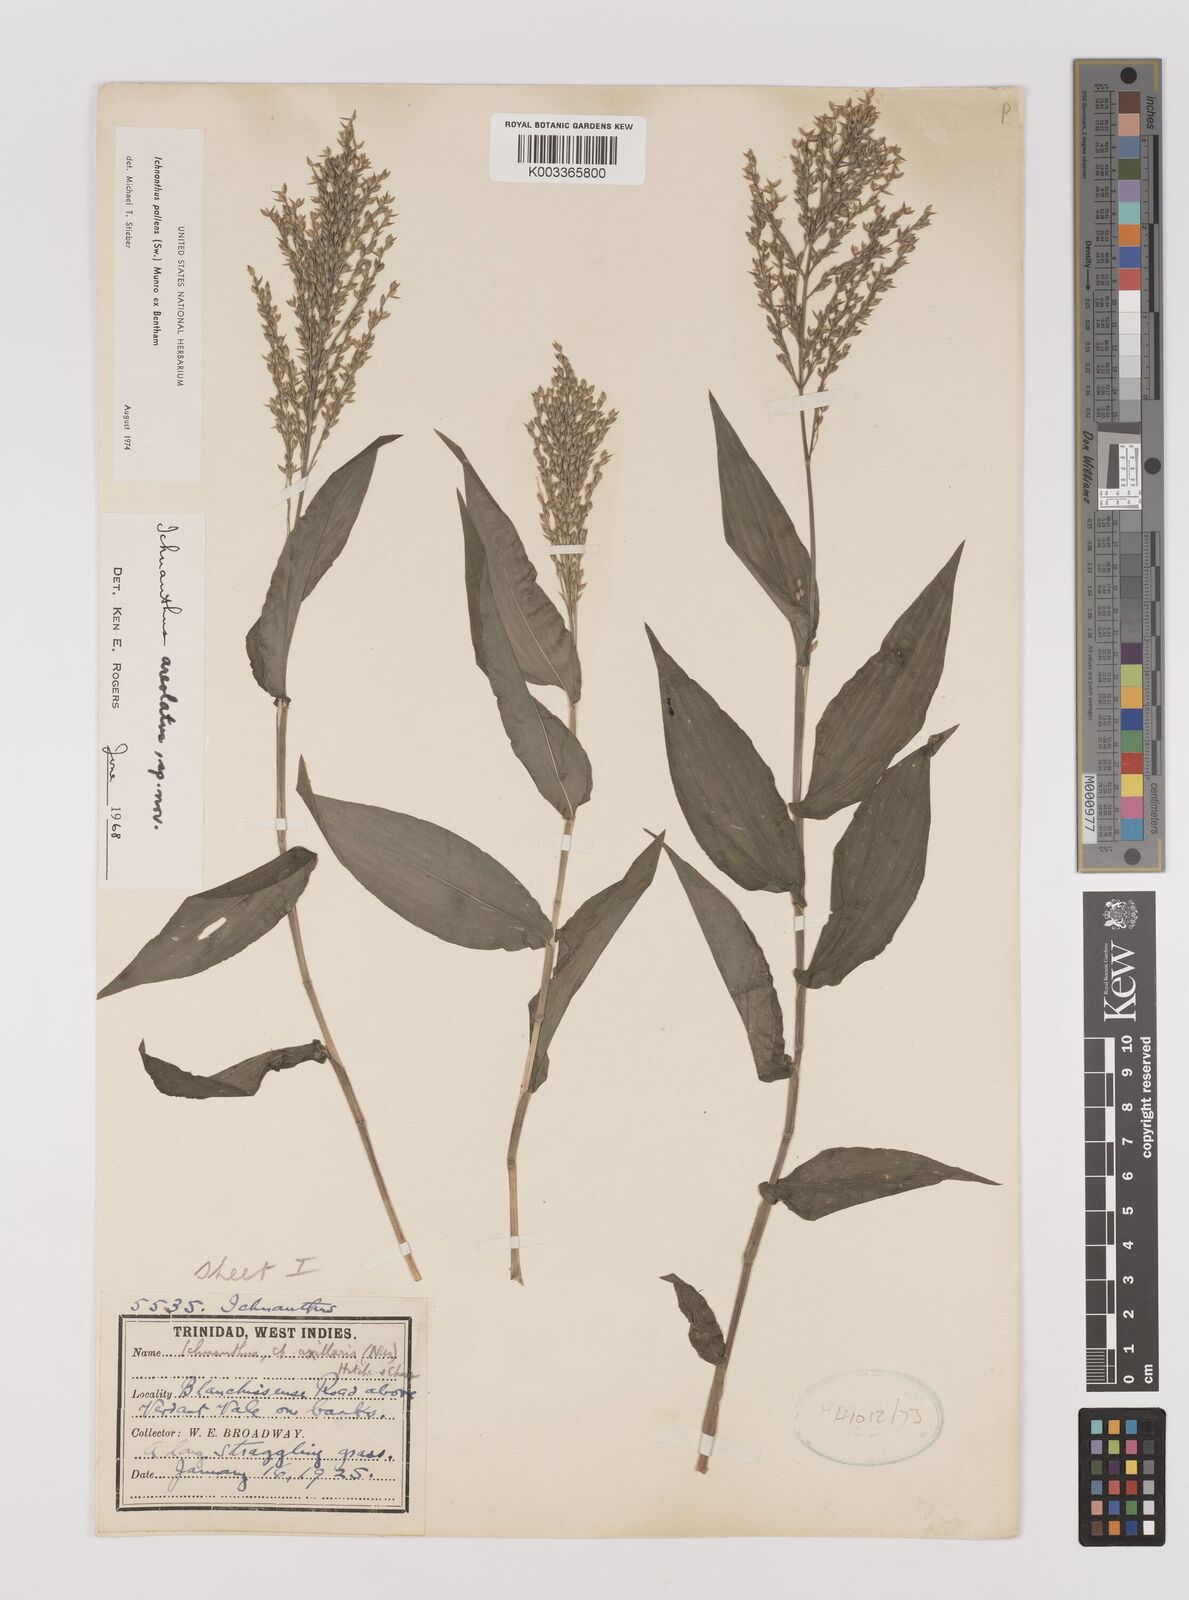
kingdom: Plantae
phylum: Tracheophyta
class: Liliopsida
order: Poales
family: Poaceae
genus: Ichnanthus
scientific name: Ichnanthus pallens
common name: Water grass
